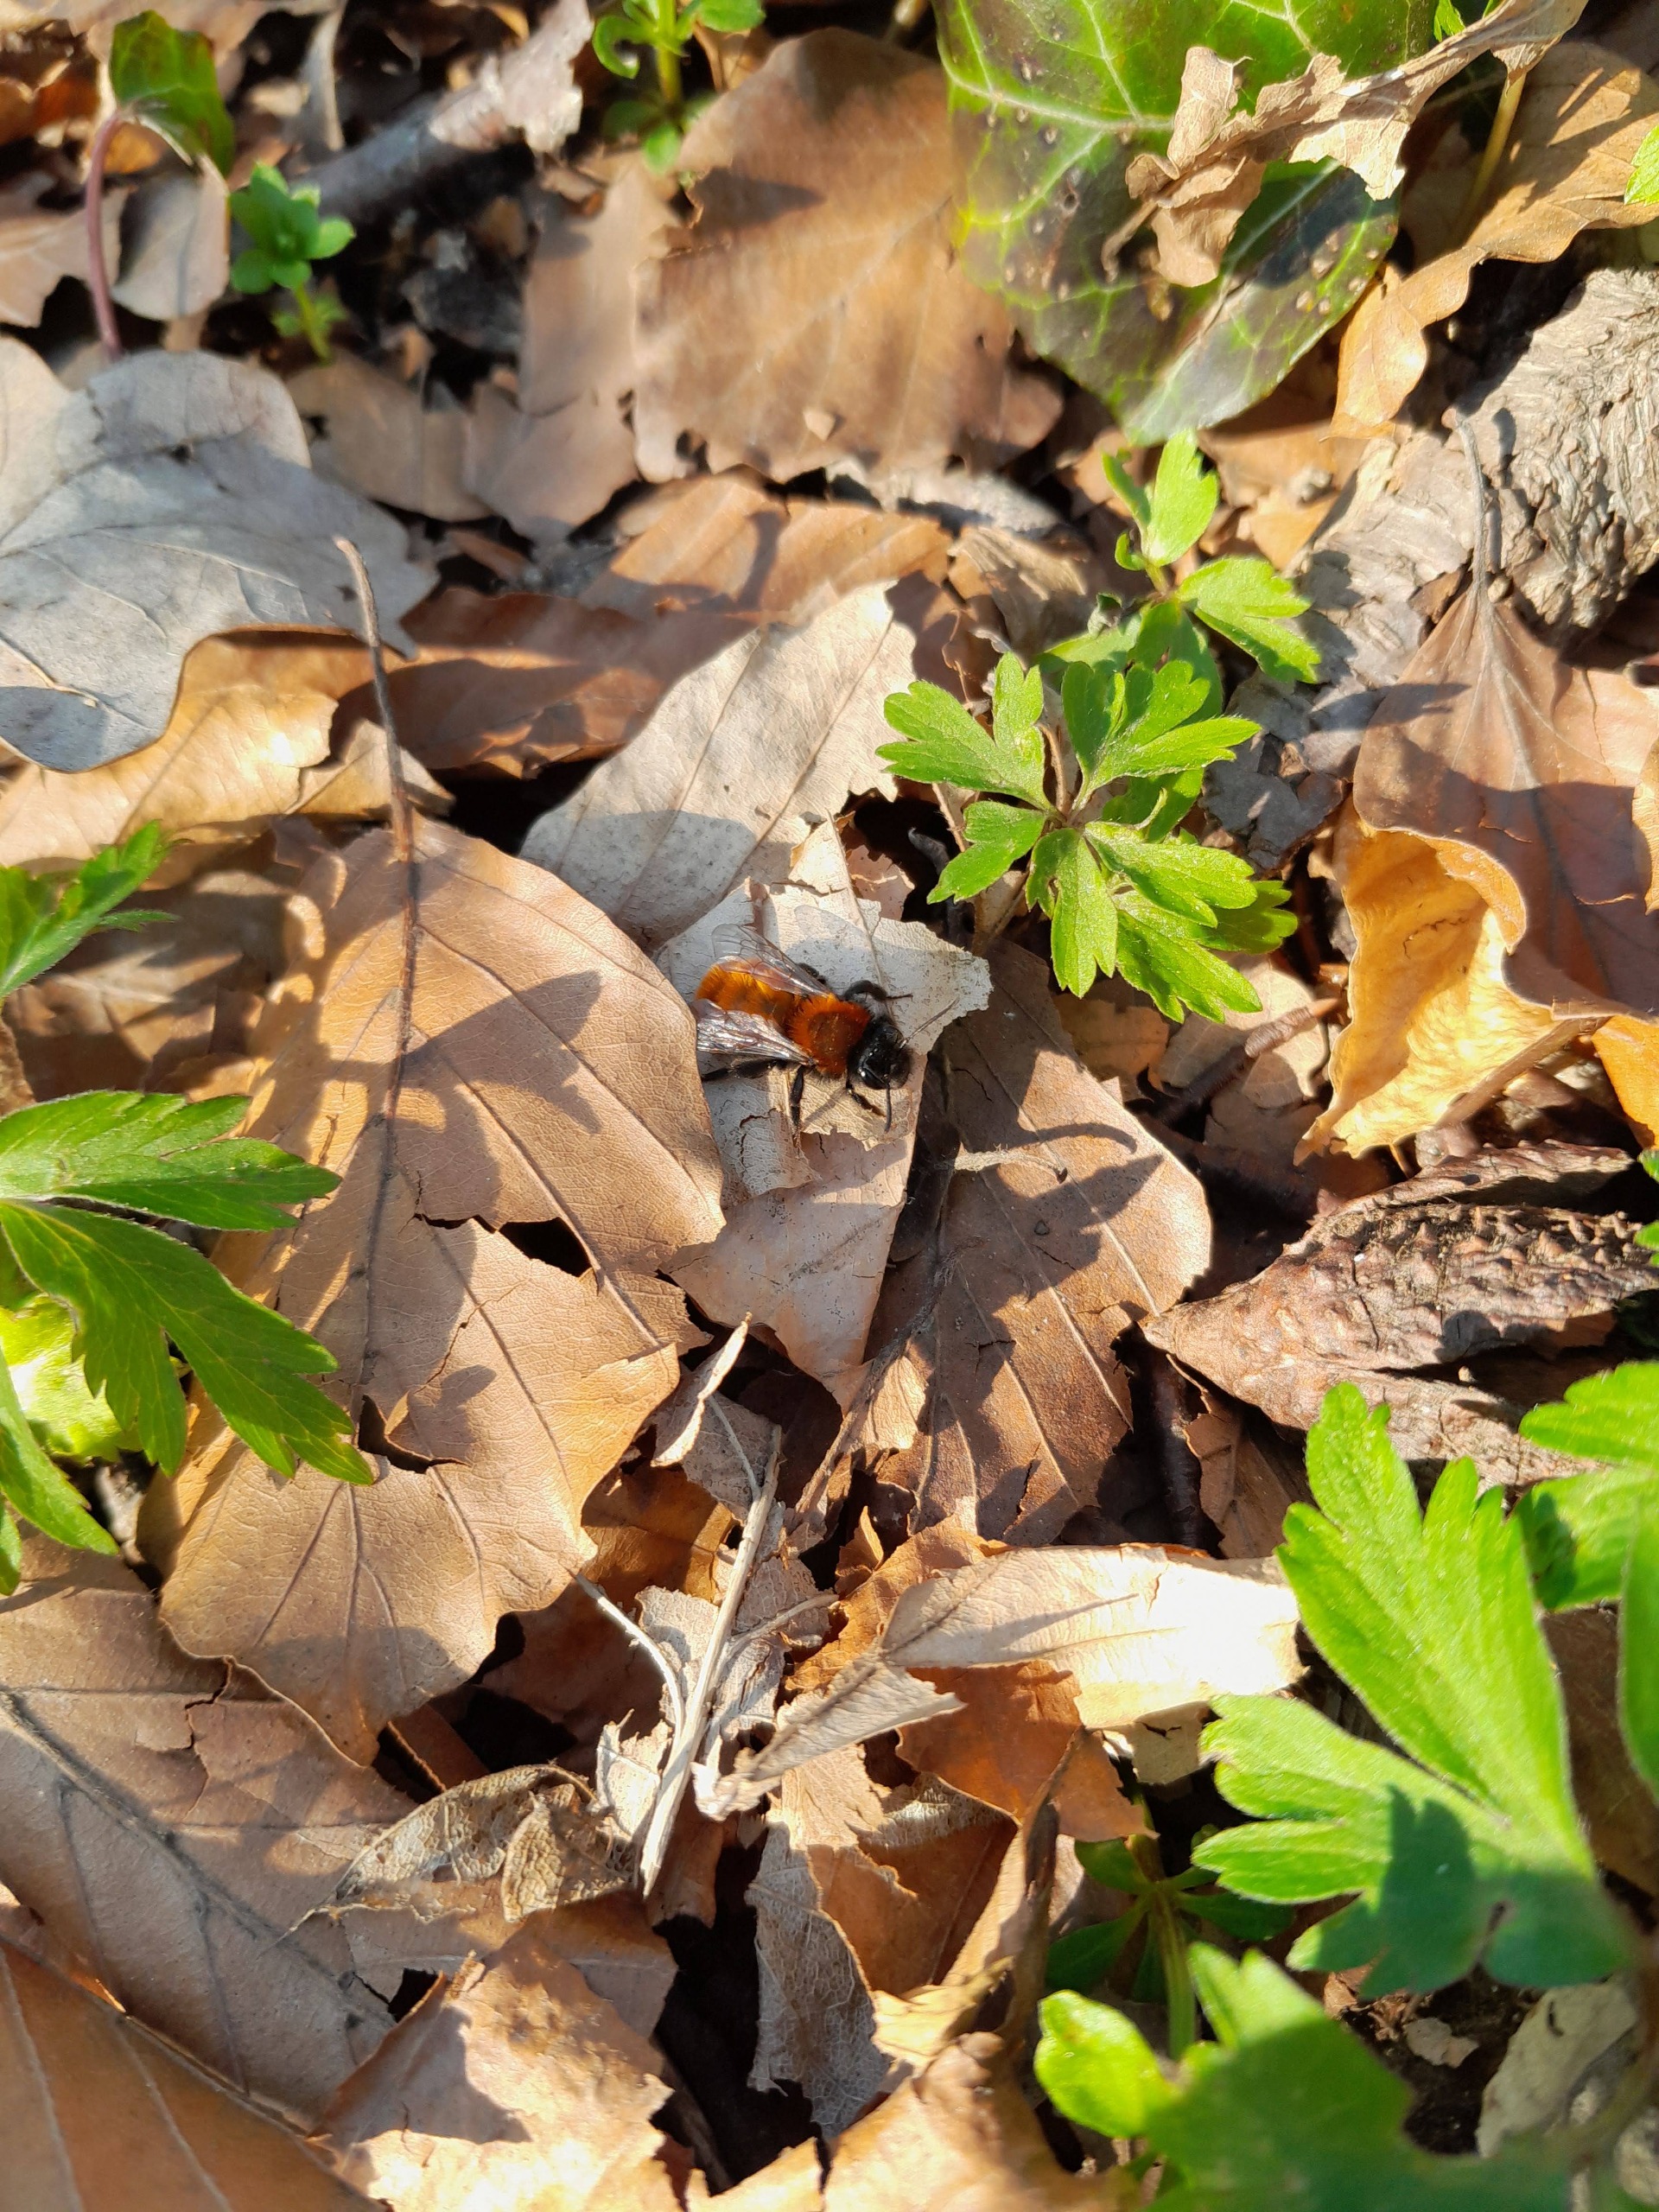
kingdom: Animalia
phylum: Arthropoda
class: Insecta
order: Hymenoptera
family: Andrenidae
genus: Andrena
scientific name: Andrena fulva
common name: Rødpelset jordbi
